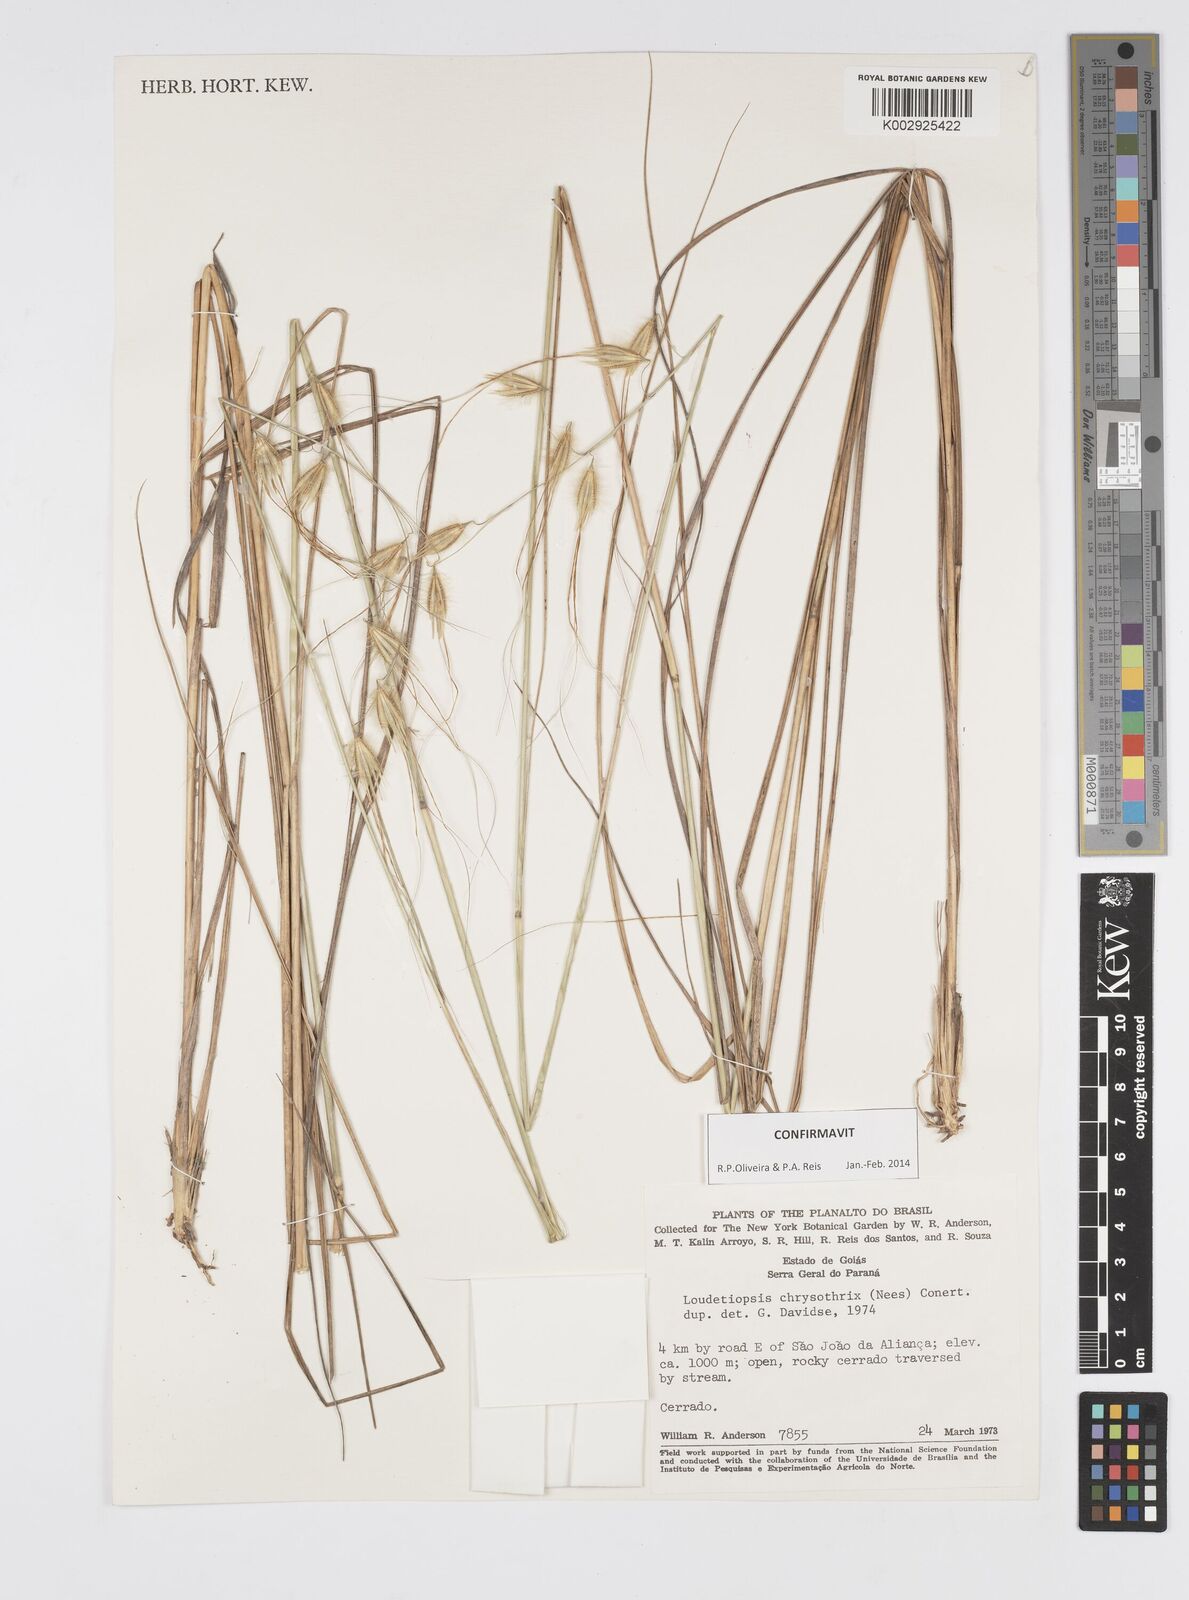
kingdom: Plantae
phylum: Tracheophyta
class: Liliopsida
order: Poales
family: Poaceae
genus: Loudetiopsis
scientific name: Loudetiopsis chrysothrix
